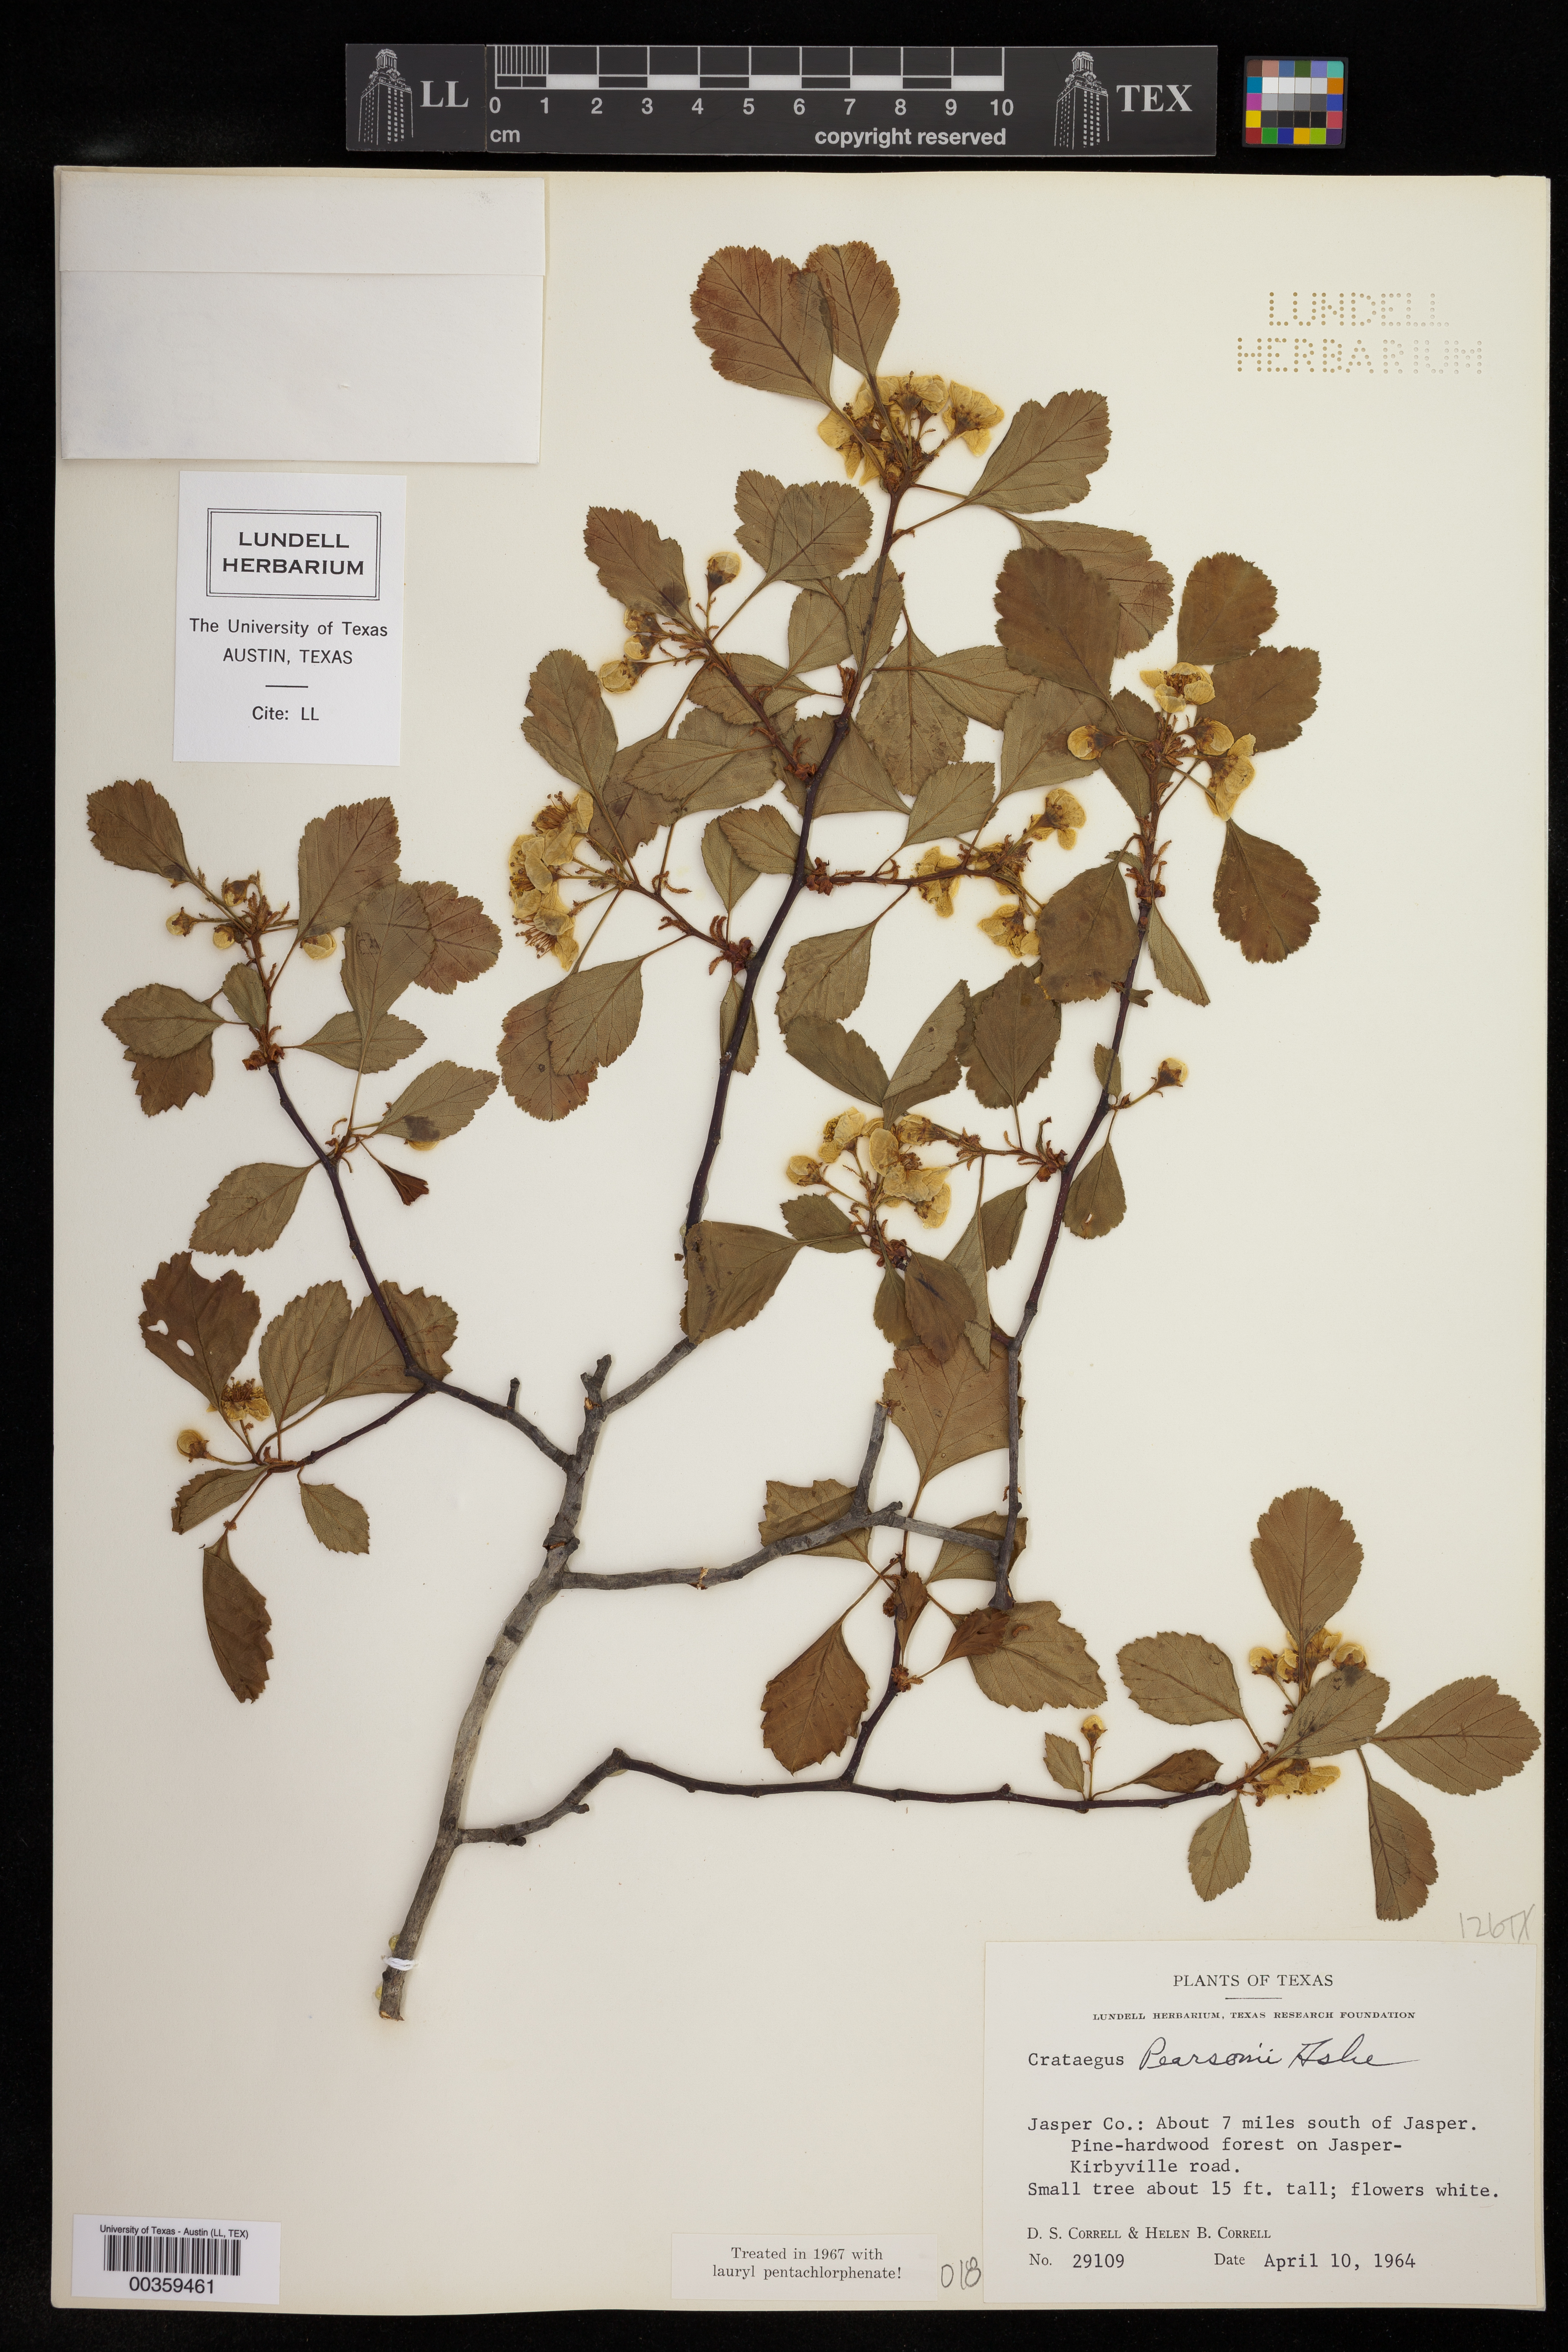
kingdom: Plantae
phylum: Tracheophyta
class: Magnoliopsida
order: Rosales
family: Rosaceae
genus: Crataegus
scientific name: Crataegus pearsonii
